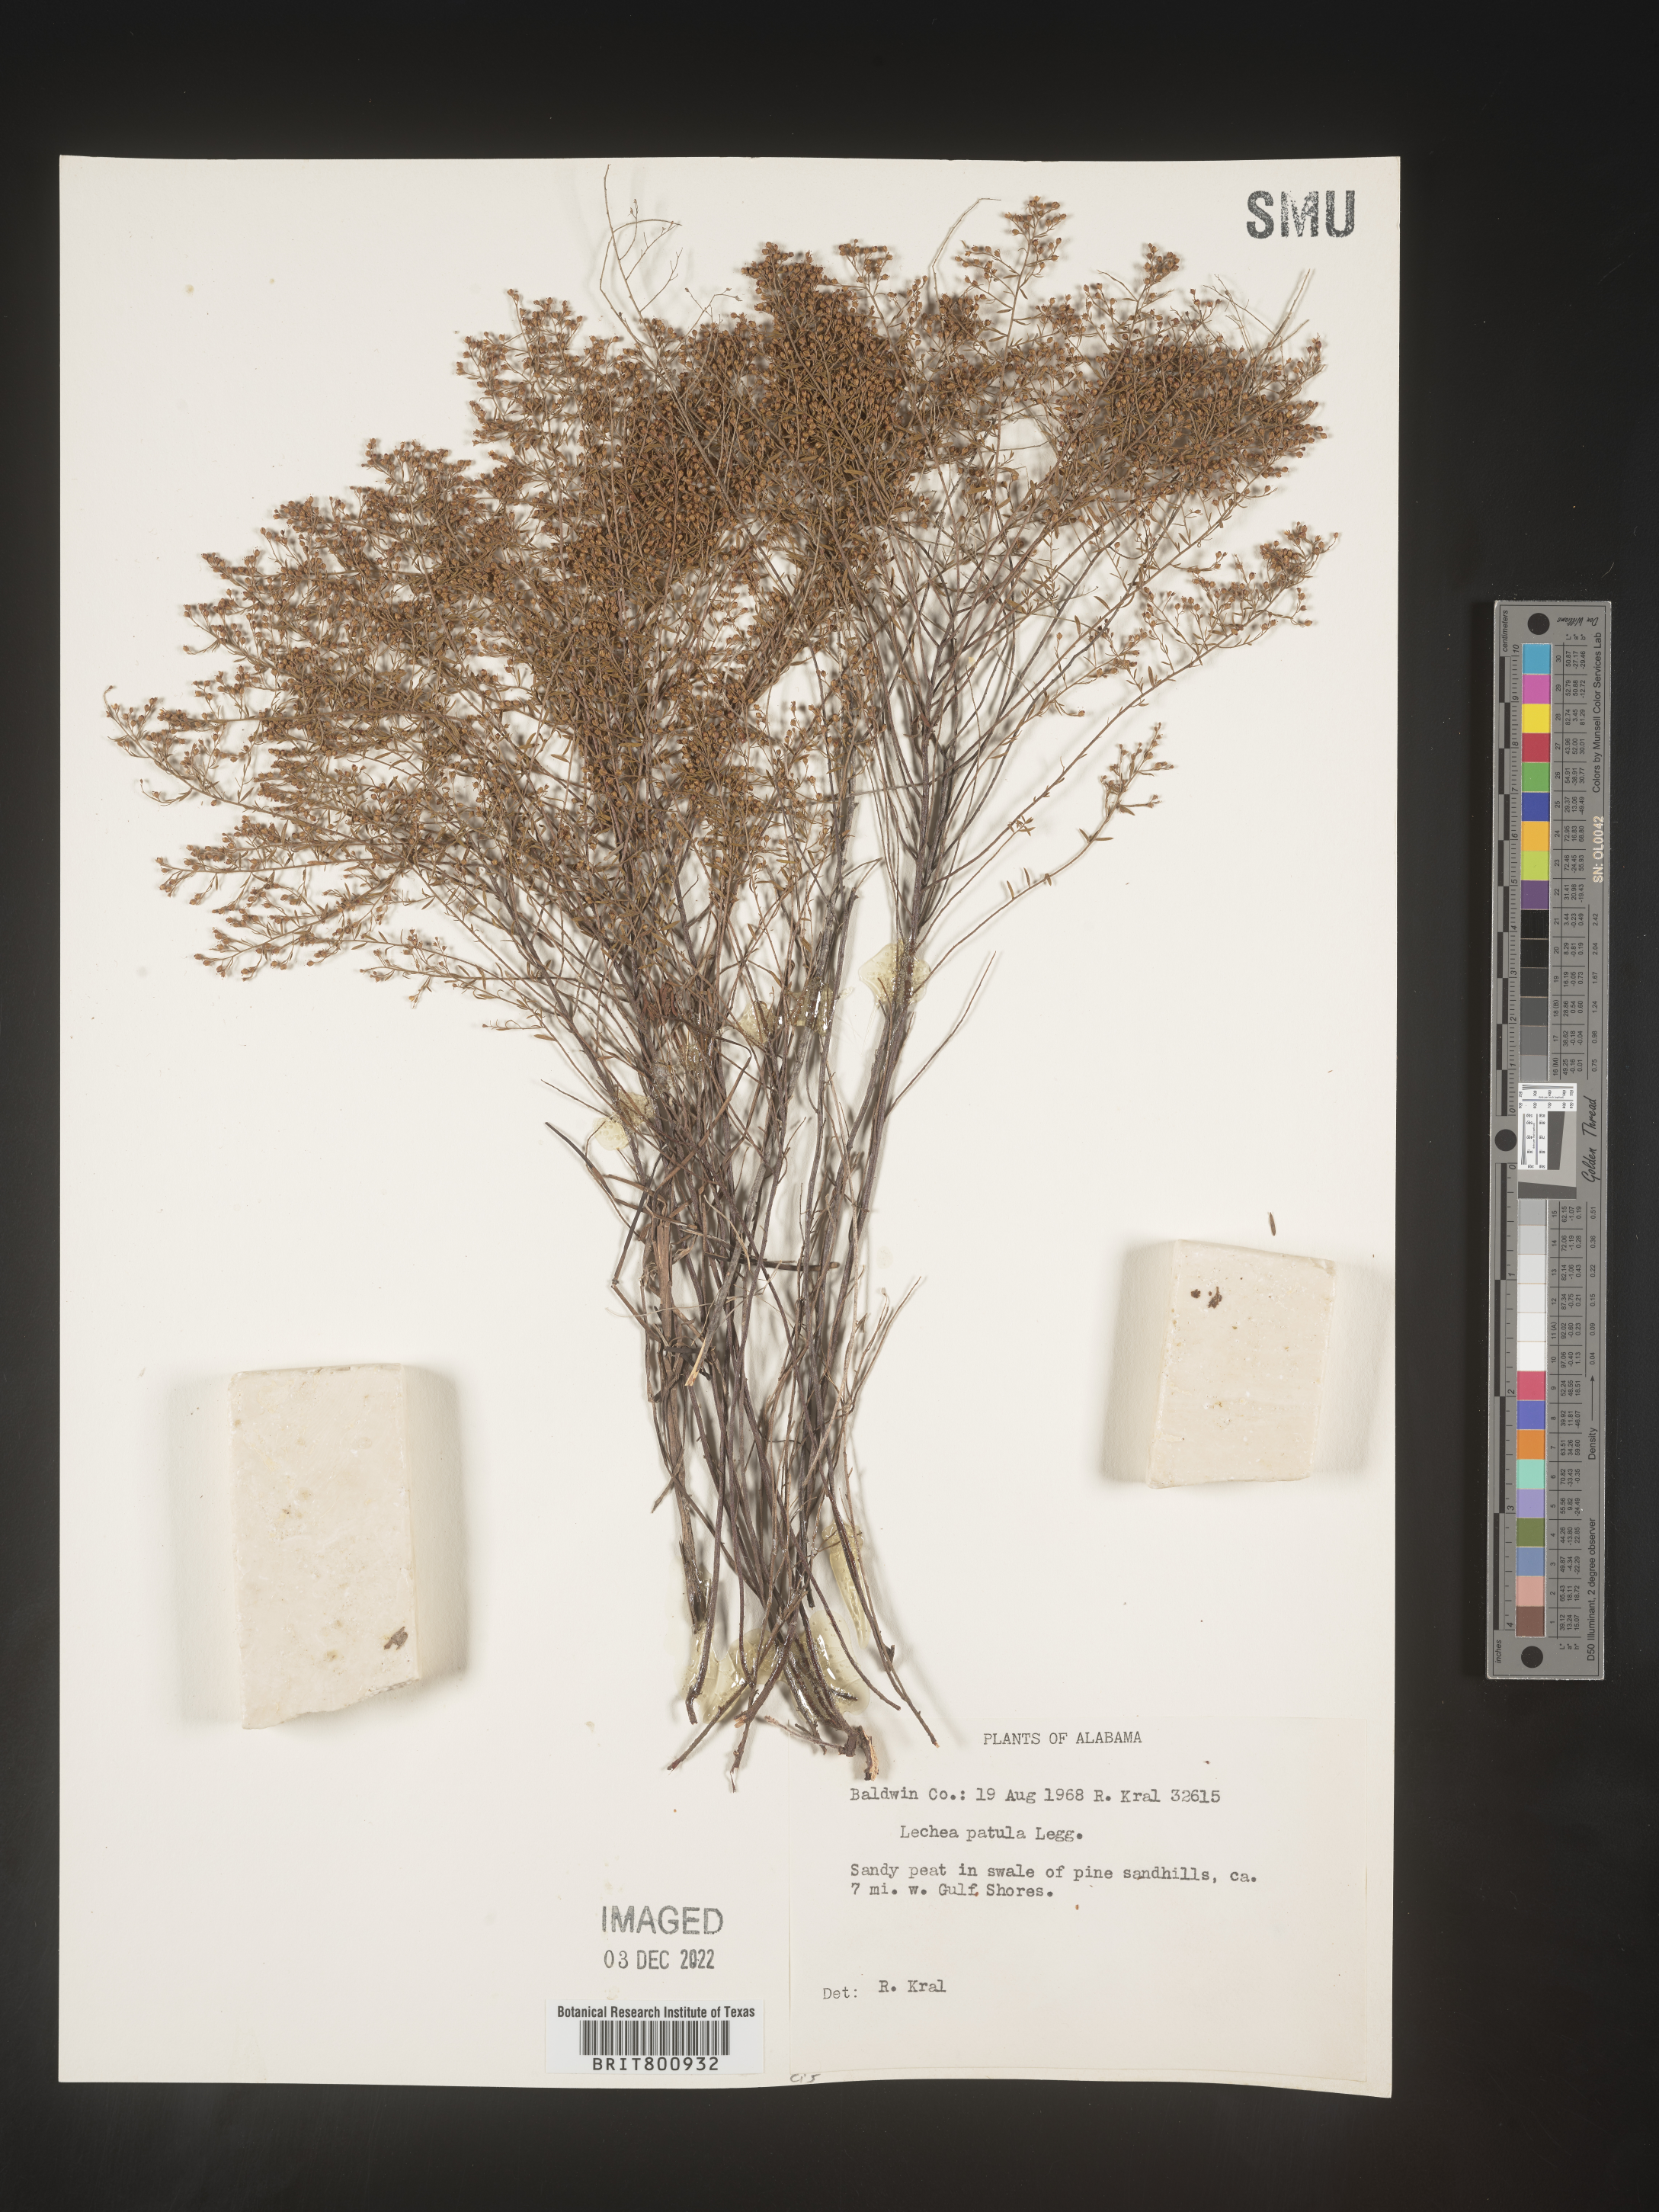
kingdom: Plantae
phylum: Tracheophyta
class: Magnoliopsida
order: Malvales
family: Cistaceae
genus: Lechea
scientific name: Lechea sessiliflora
